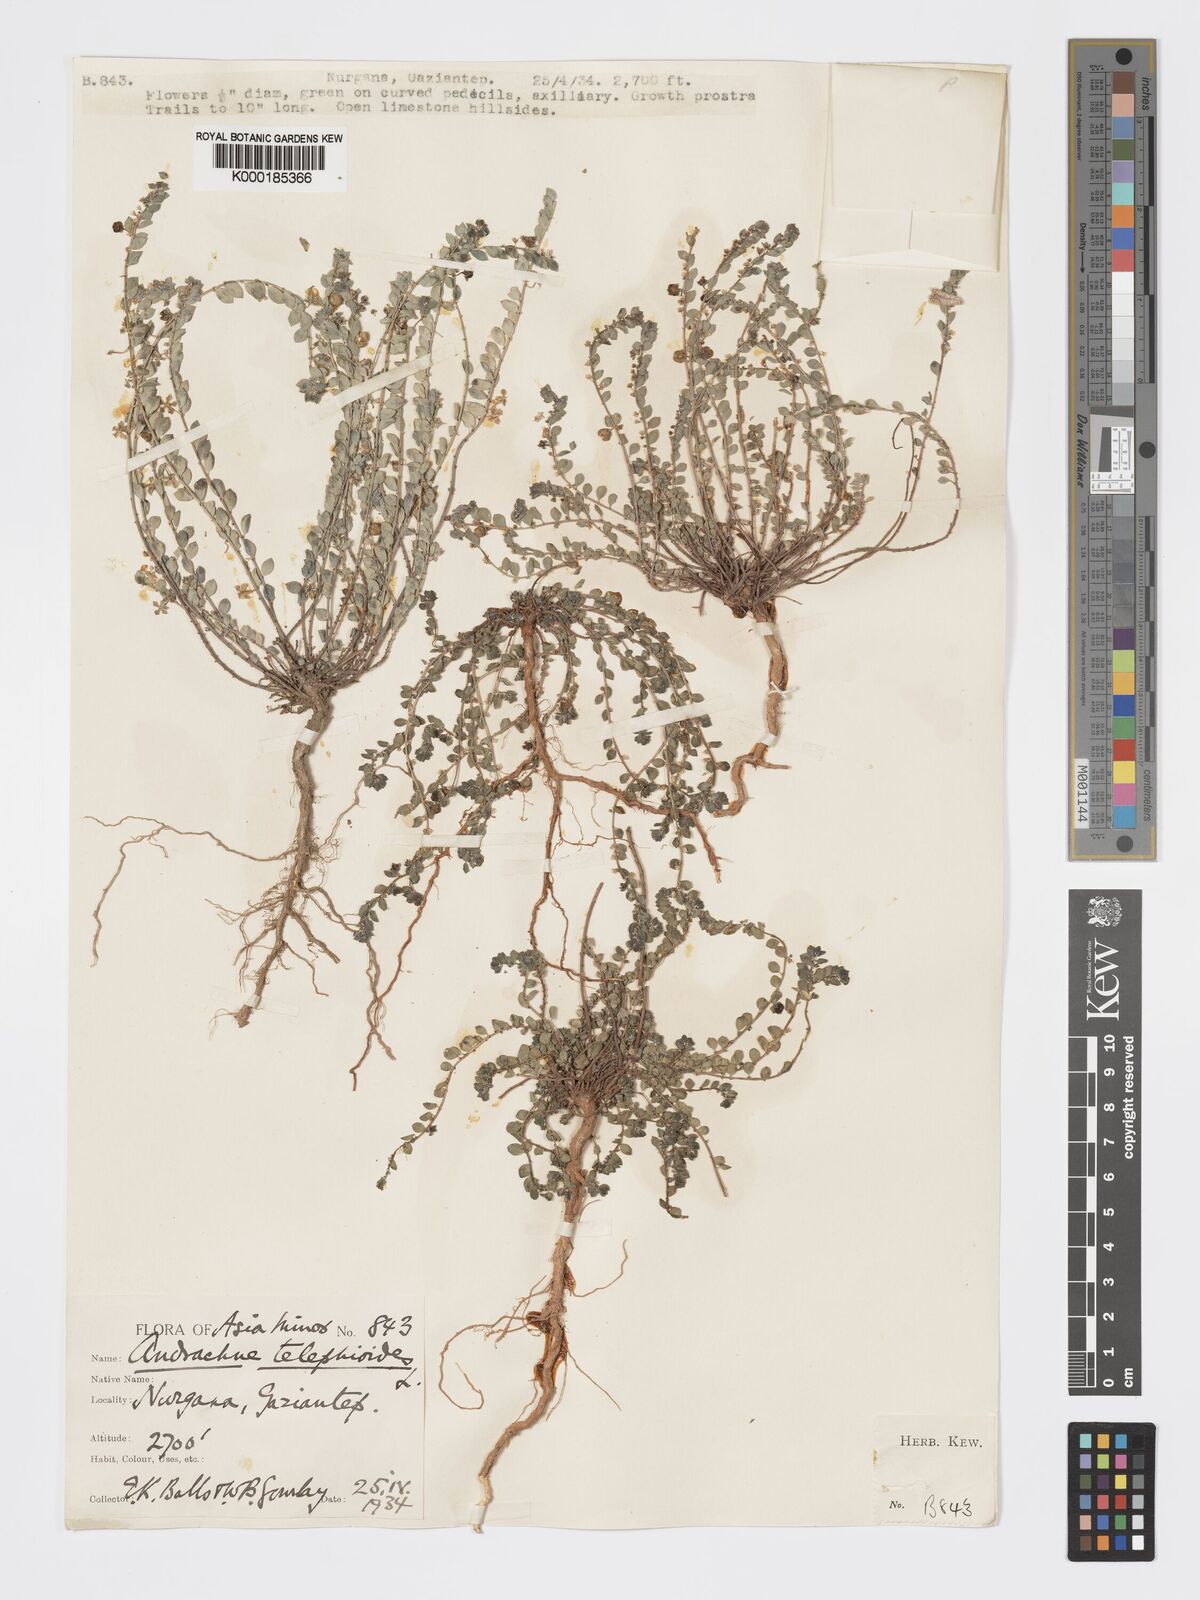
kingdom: Plantae
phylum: Tracheophyta
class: Magnoliopsida
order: Malpighiales
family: Phyllanthaceae
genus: Andrachne
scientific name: Andrachne telephioides
